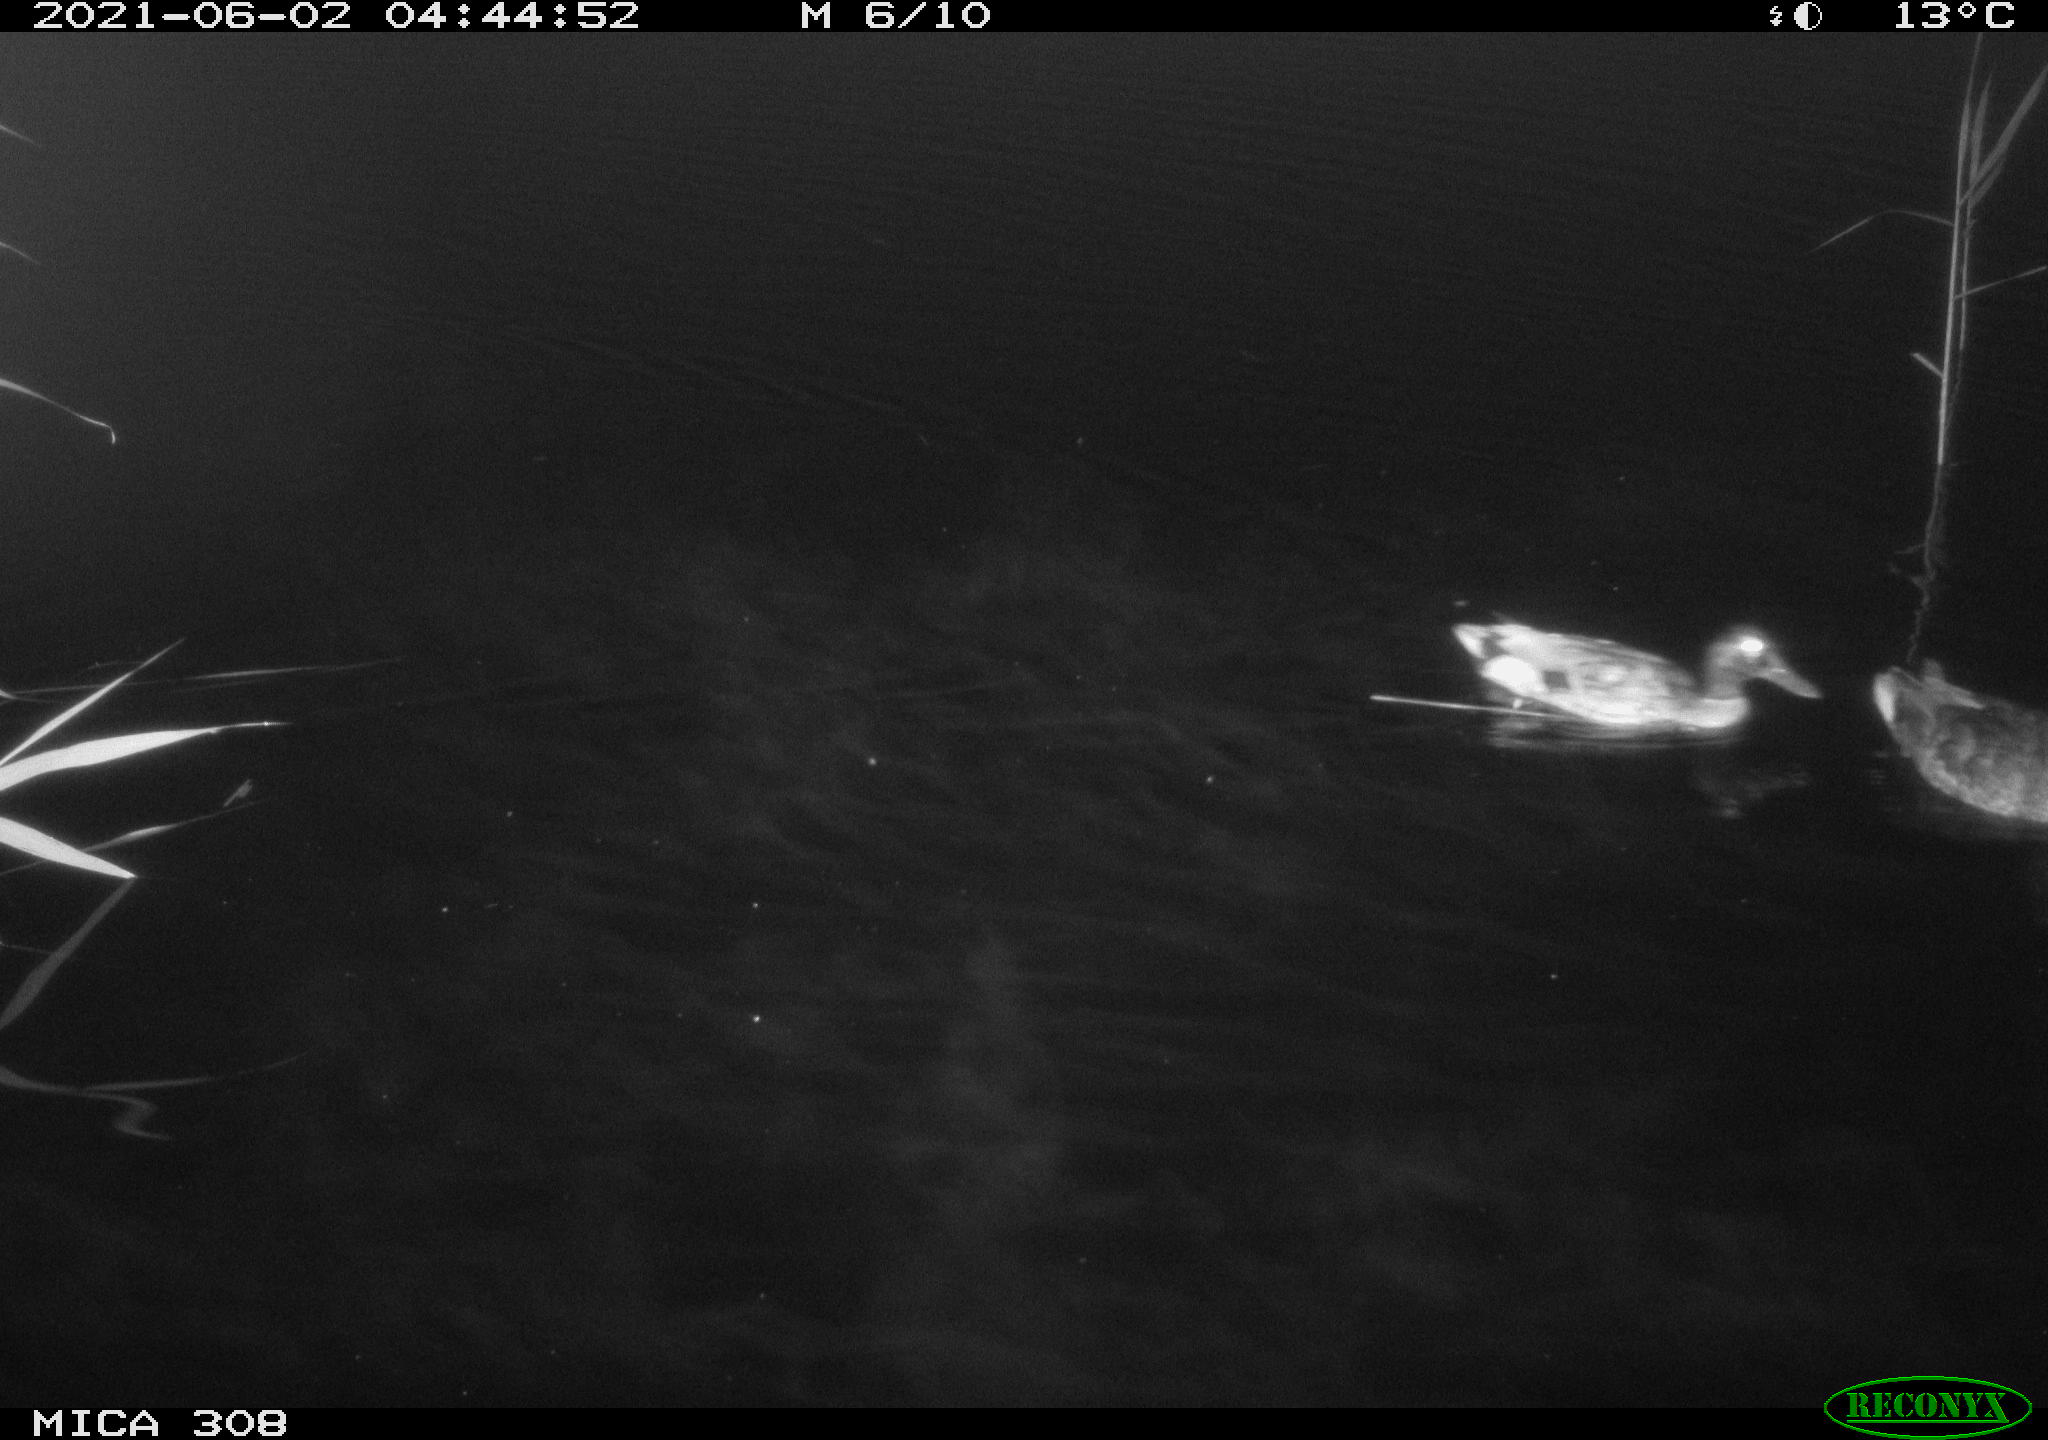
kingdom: Animalia
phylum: Chordata
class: Aves
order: Anseriformes
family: Anatidae
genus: Anas
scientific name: Anas platyrhynchos
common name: Mallard
